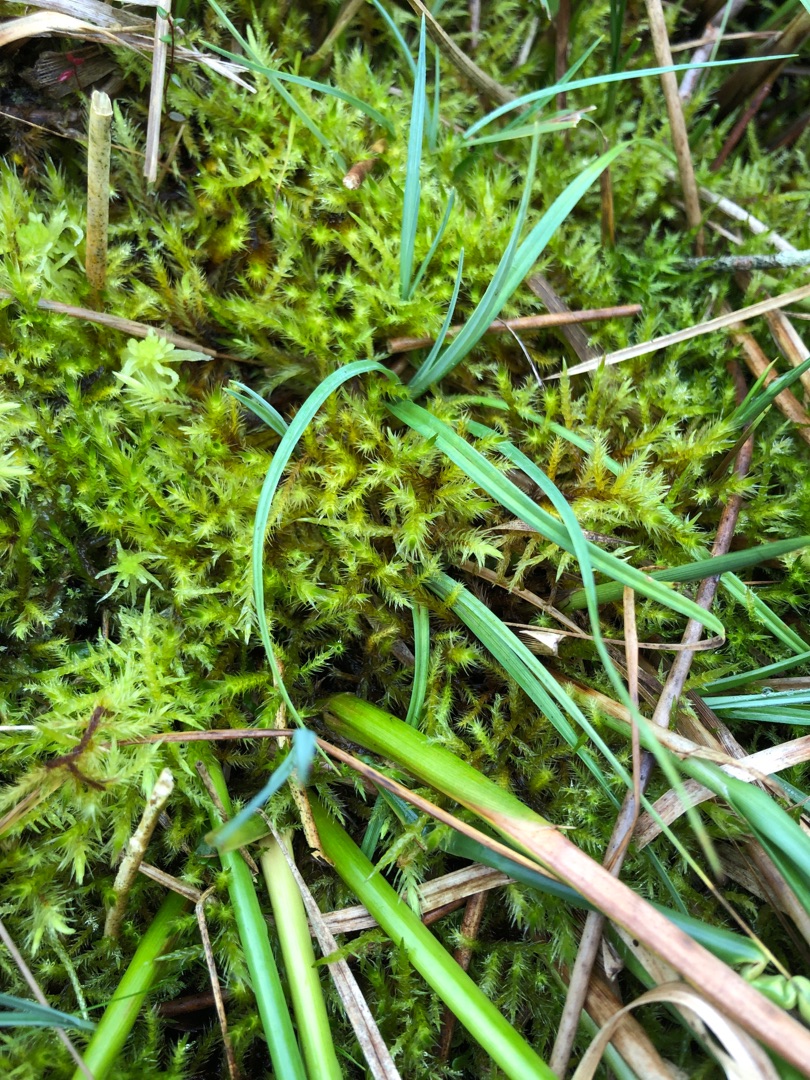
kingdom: Plantae
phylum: Bryophyta
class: Bryopsida
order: Hypnales
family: Amblystegiaceae
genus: Tomentypnum
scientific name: Tomentypnum nitens
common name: Glinsende kærmos
